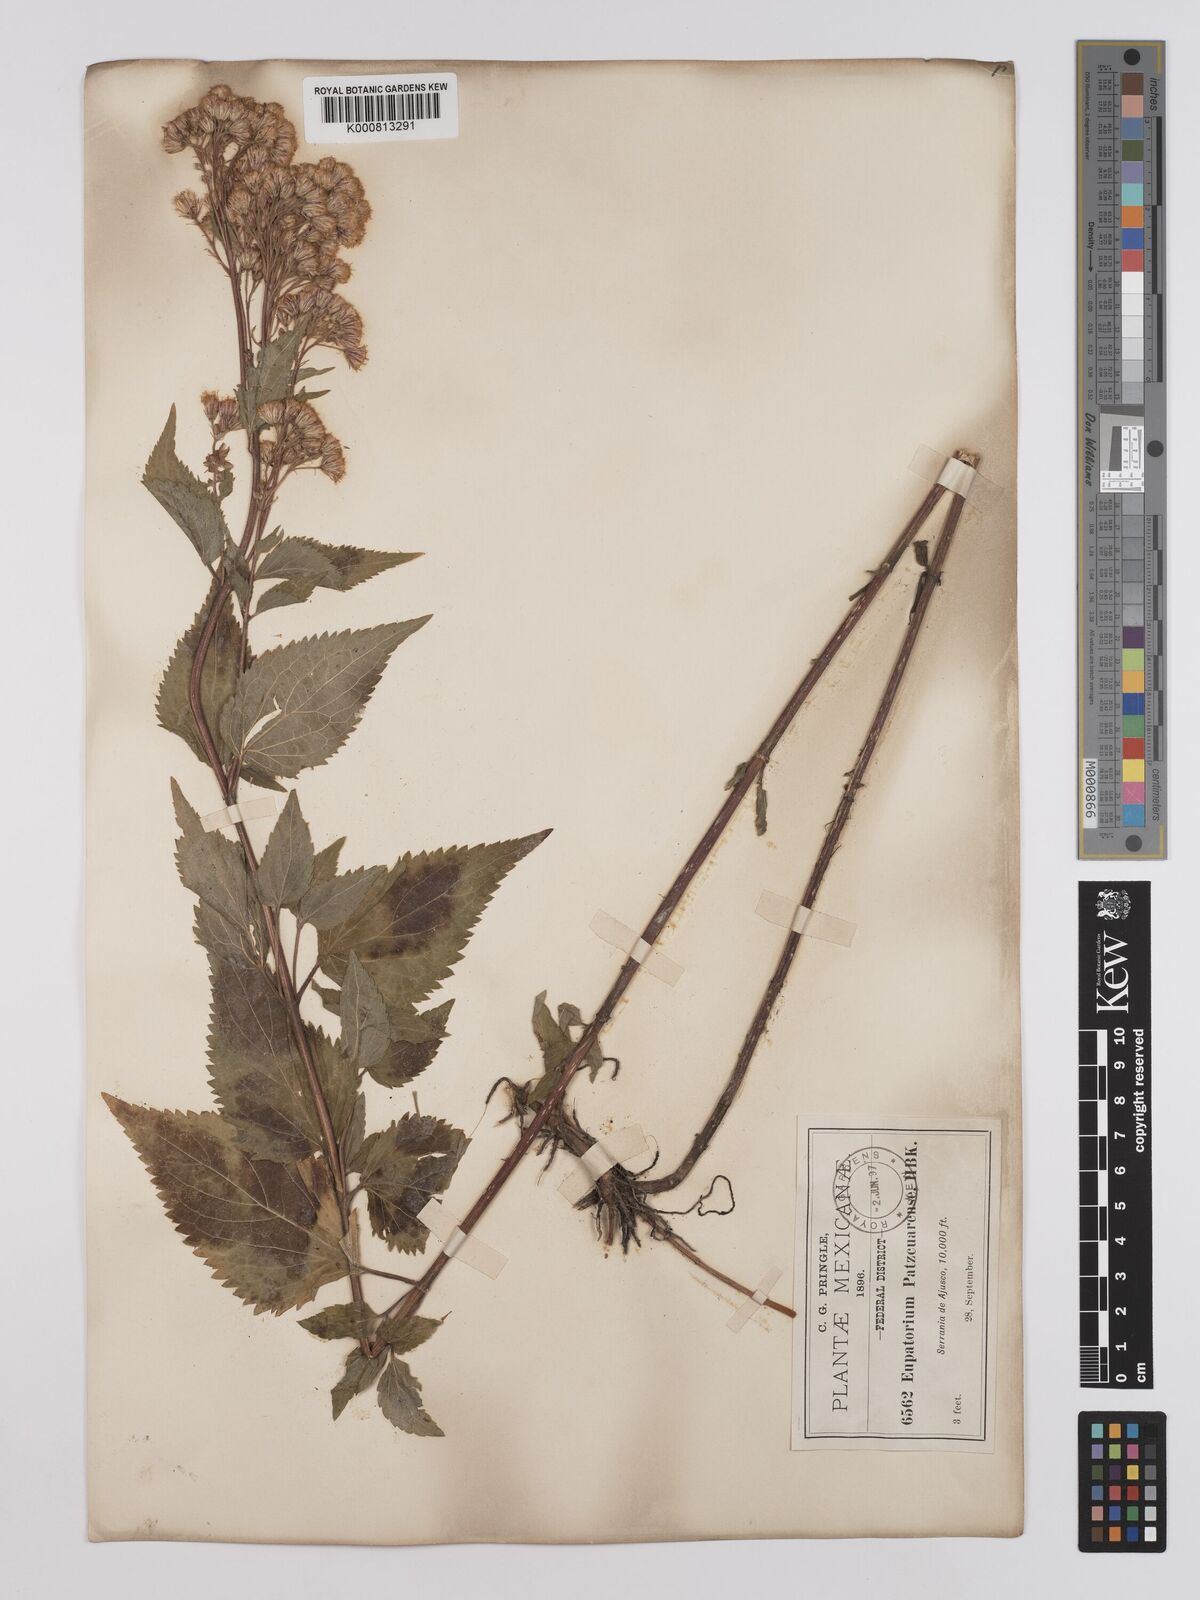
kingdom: Plantae
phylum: Tracheophyta
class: Magnoliopsida
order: Asterales
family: Asteraceae
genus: Ageratina
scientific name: Ageratina pazcuarensis
